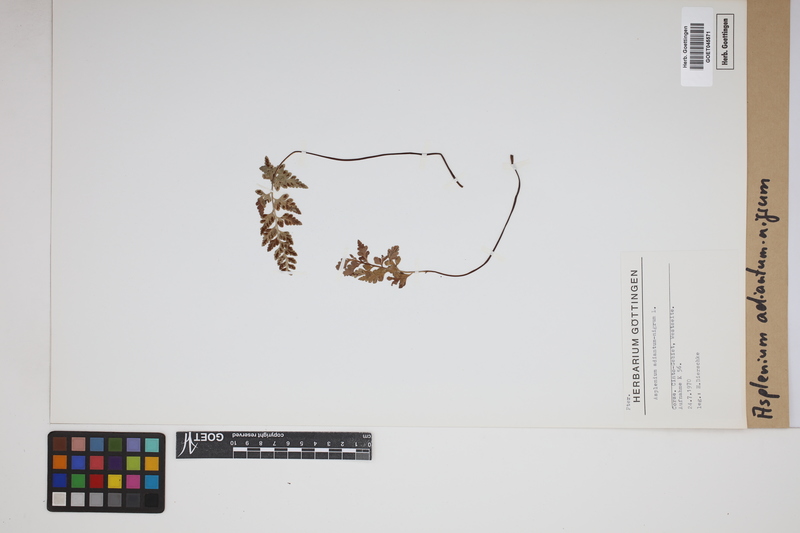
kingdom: Plantae
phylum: Tracheophyta
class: Polypodiopsida
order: Polypodiales
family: Aspleniaceae
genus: Asplenium
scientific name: Asplenium adiantum-nigrum
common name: Black spleenwort
